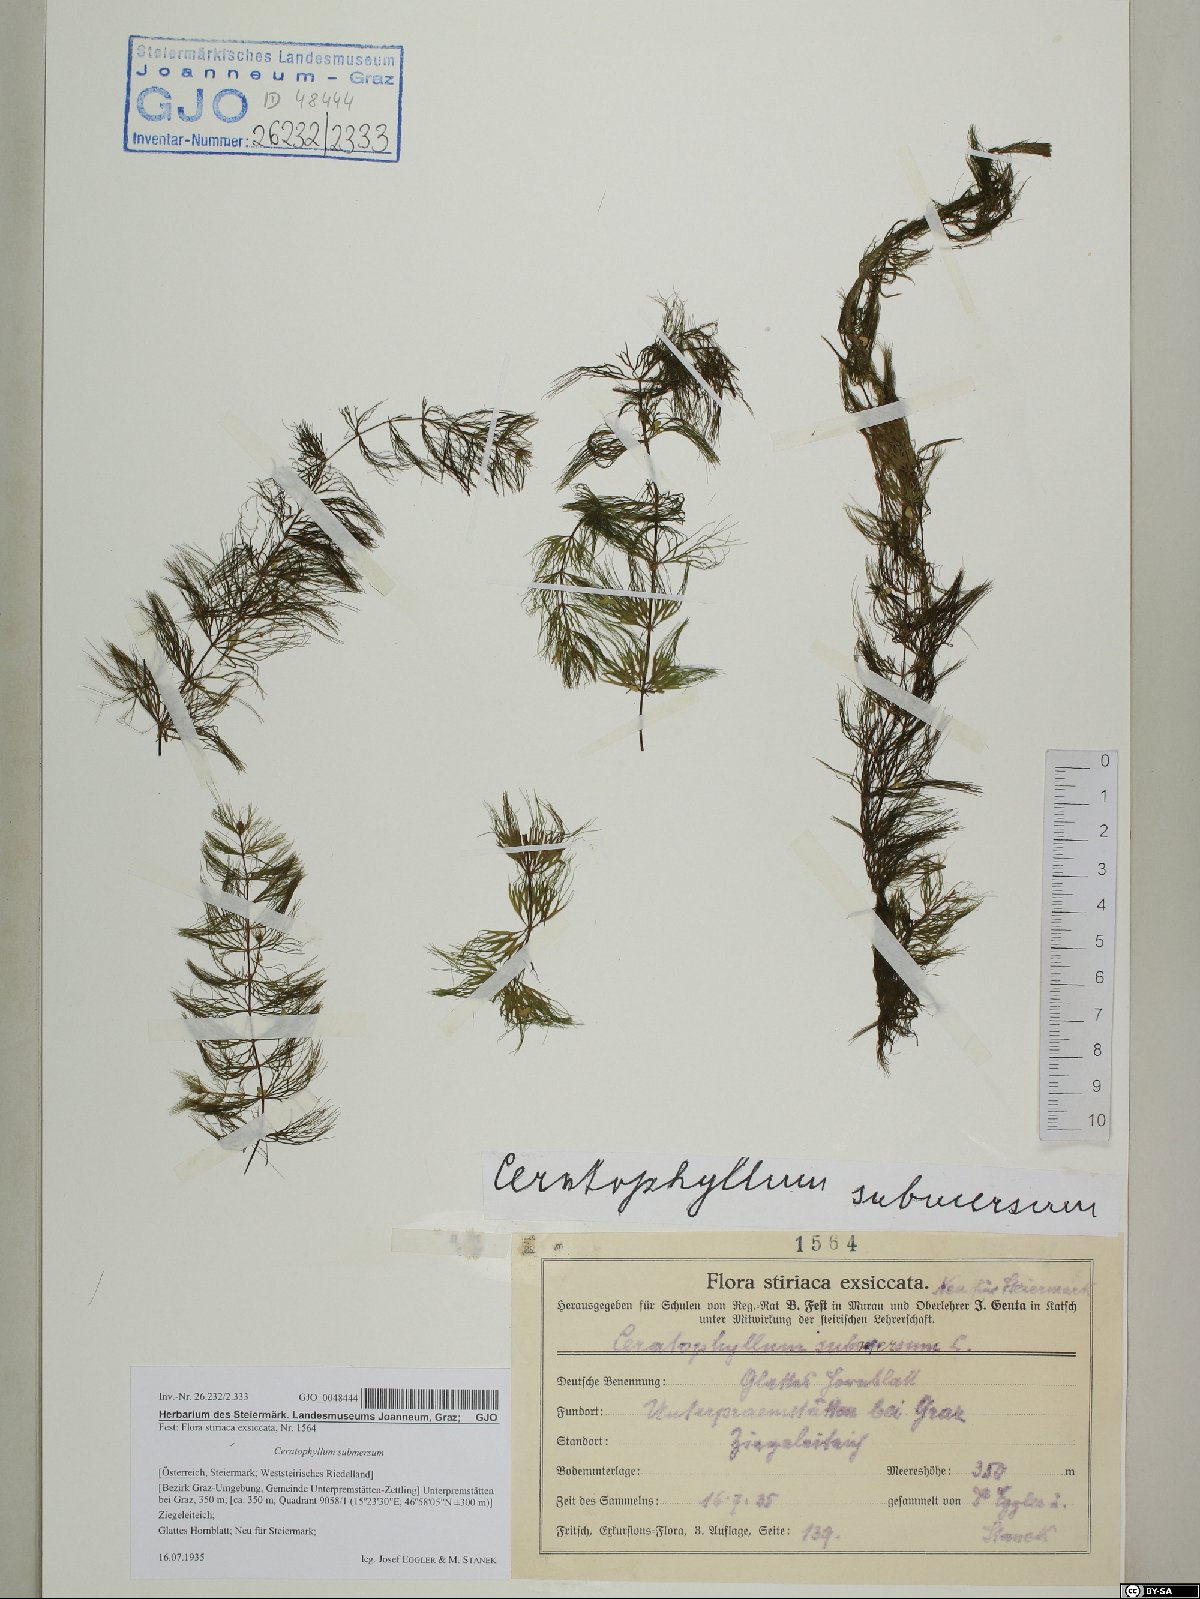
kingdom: Plantae
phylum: Tracheophyta
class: Magnoliopsida
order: Ceratophyllales
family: Ceratophyllaceae
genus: Ceratophyllum
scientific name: Ceratophyllum submersum
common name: Soft hornwort
